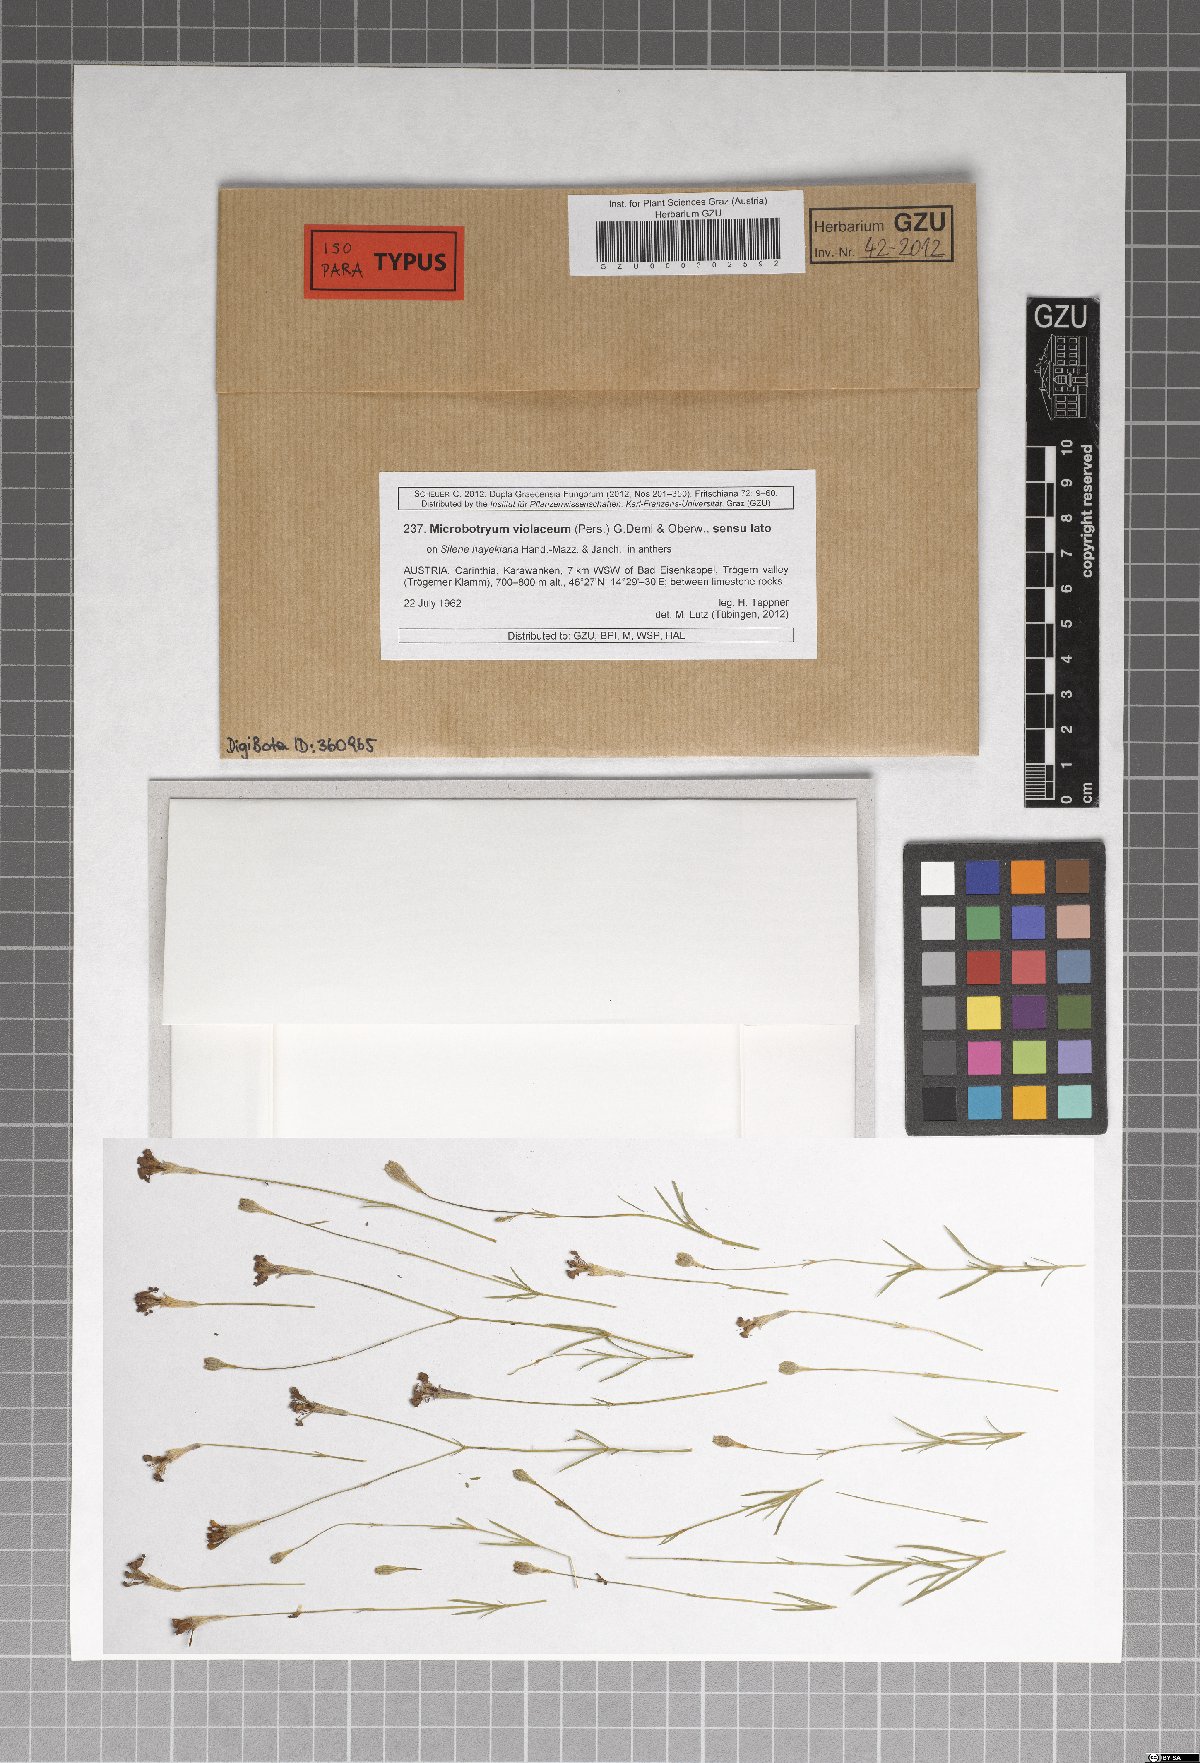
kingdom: Fungi
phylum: Basidiomycota
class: Microbotryomycetes
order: Microbotryales
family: Microbotryaceae
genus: Microbotryum
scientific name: Microbotryum silenes-saxifragae
